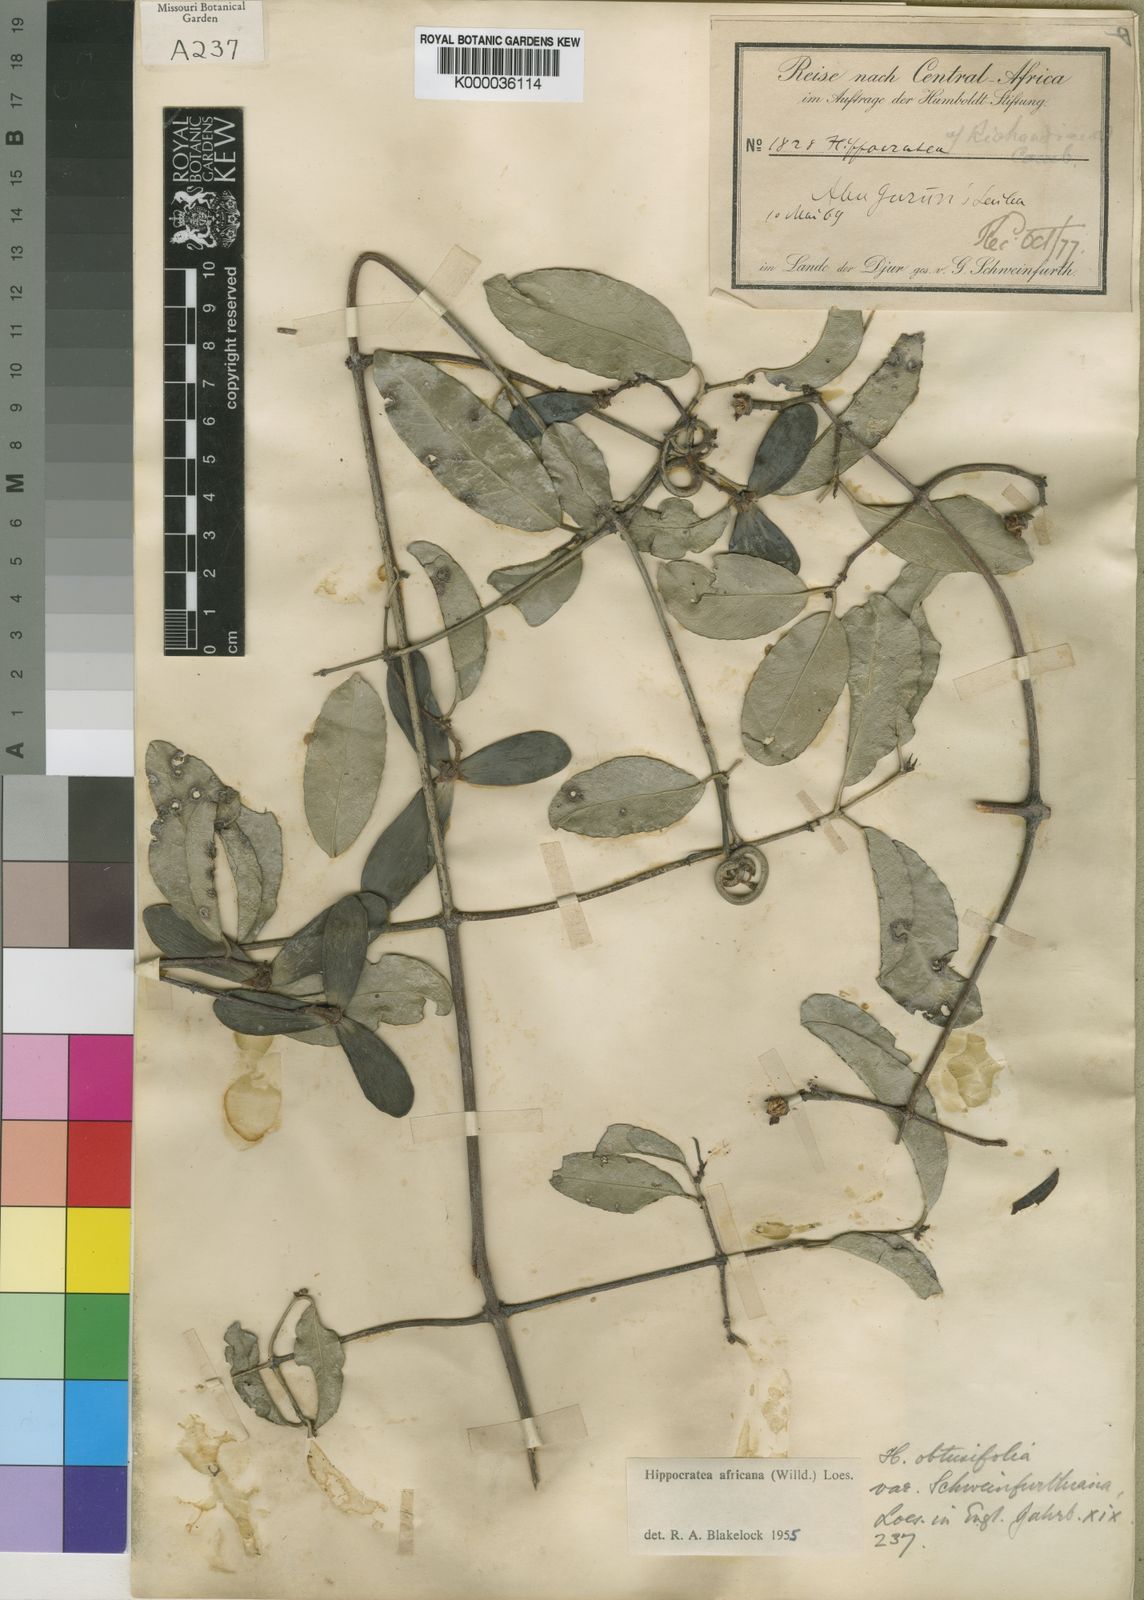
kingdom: Plantae
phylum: Tracheophyta
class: Magnoliopsida
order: Celastrales
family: Celastraceae
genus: Loeseneriella
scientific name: Loeseneriella
